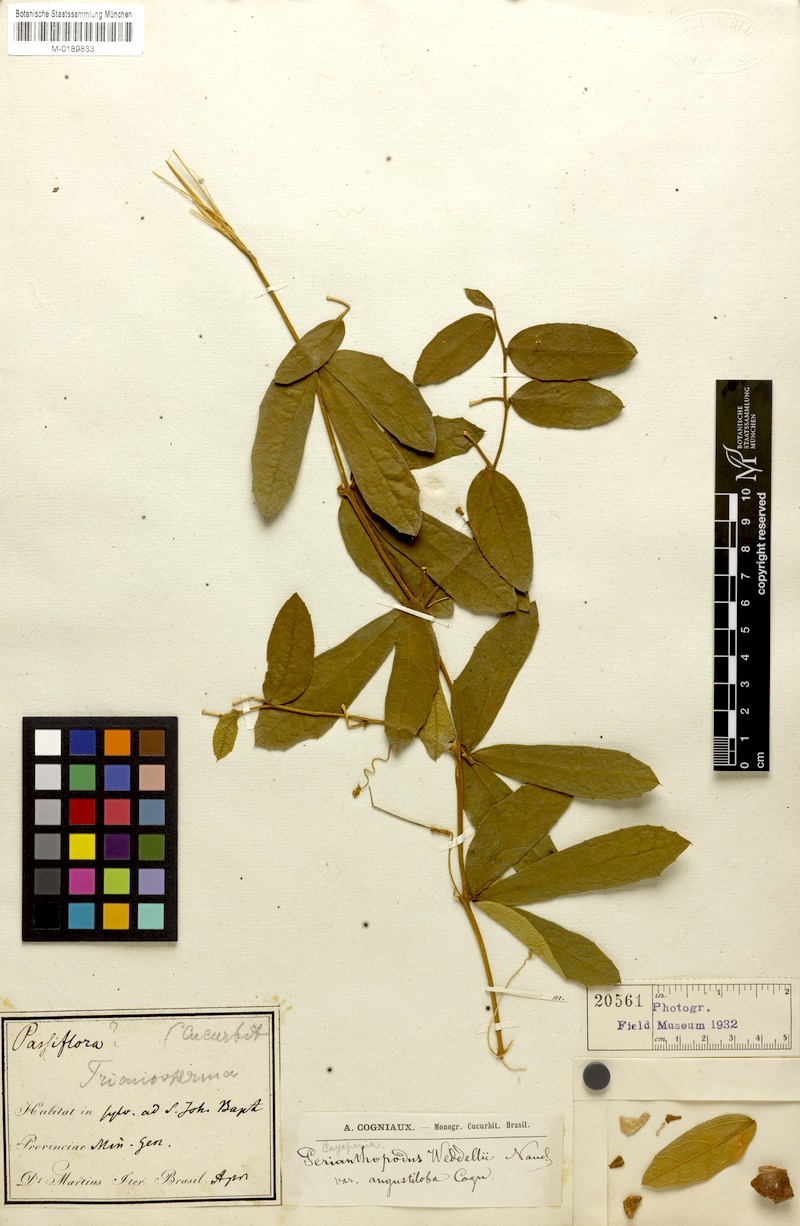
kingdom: Plantae
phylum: Tracheophyta
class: Magnoliopsida
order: Cucurbitales
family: Cucurbitaceae
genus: Cayaponia
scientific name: Cayaponia weddellii
